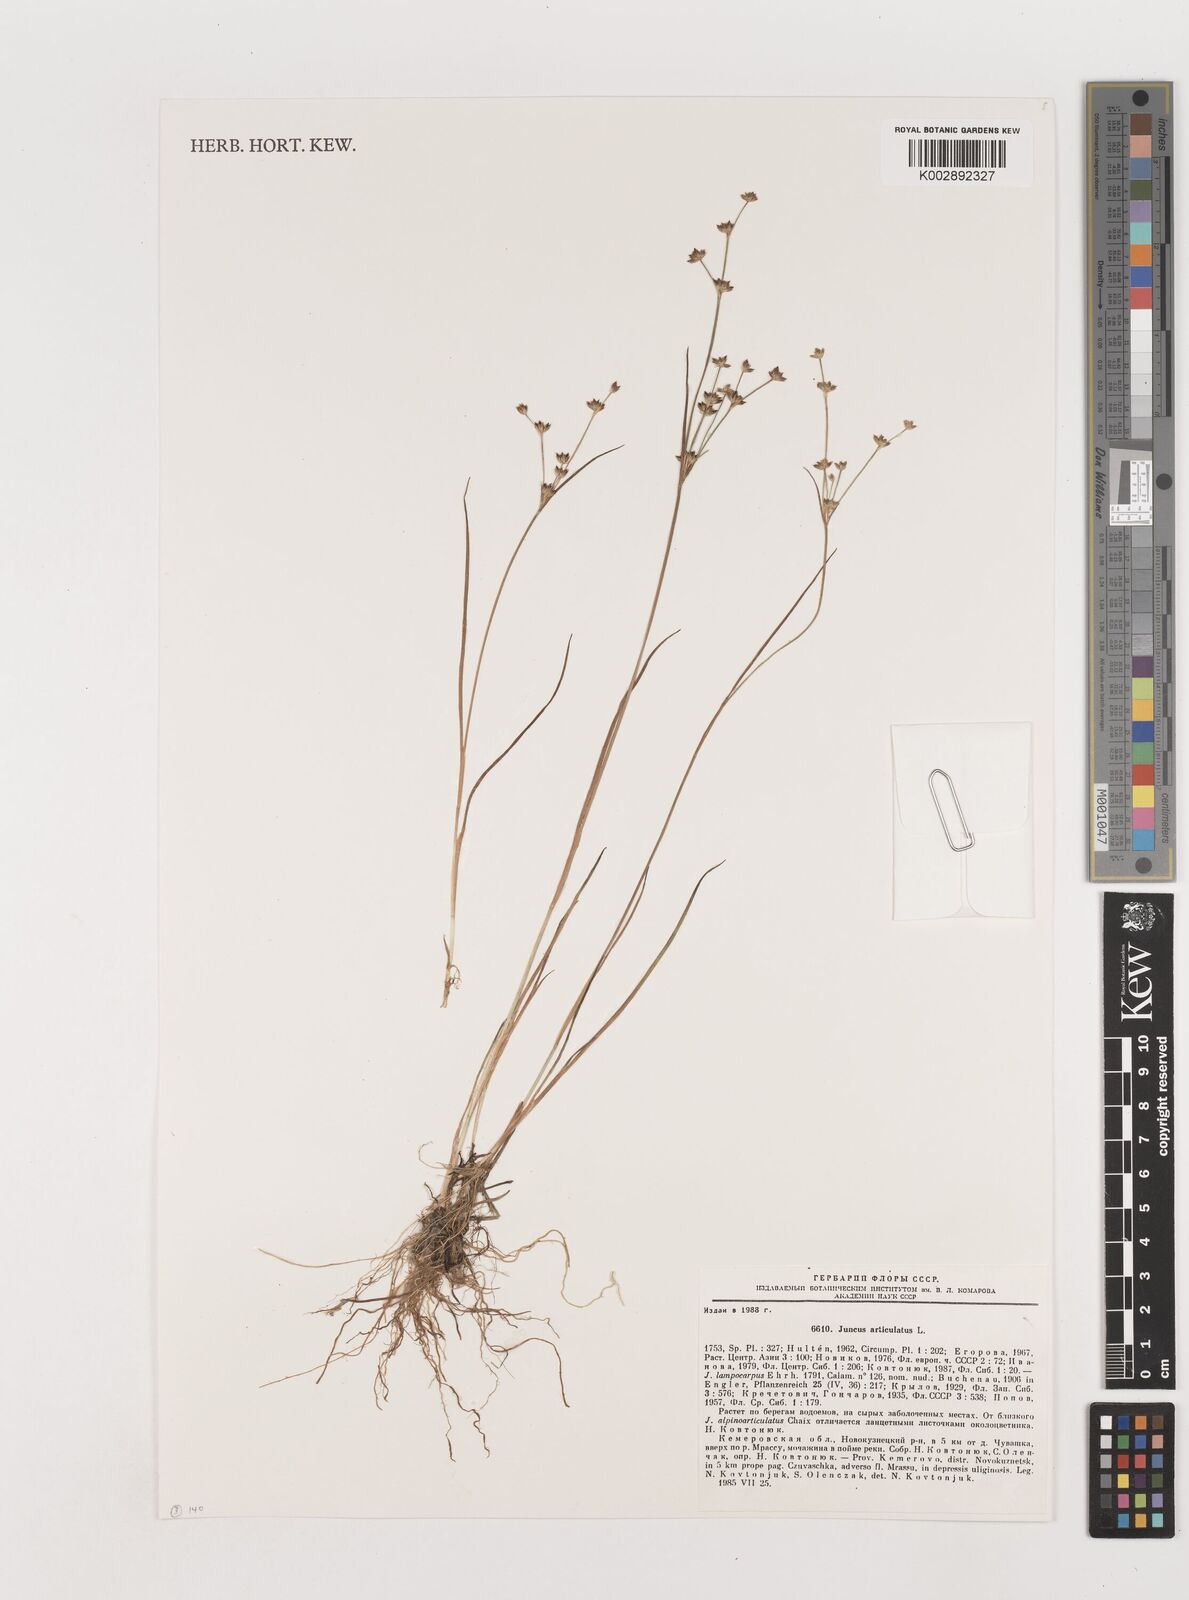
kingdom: Plantae
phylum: Tracheophyta
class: Liliopsida
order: Poales
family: Juncaceae
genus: Juncus
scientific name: Juncus articulatus
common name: Jointed rush
